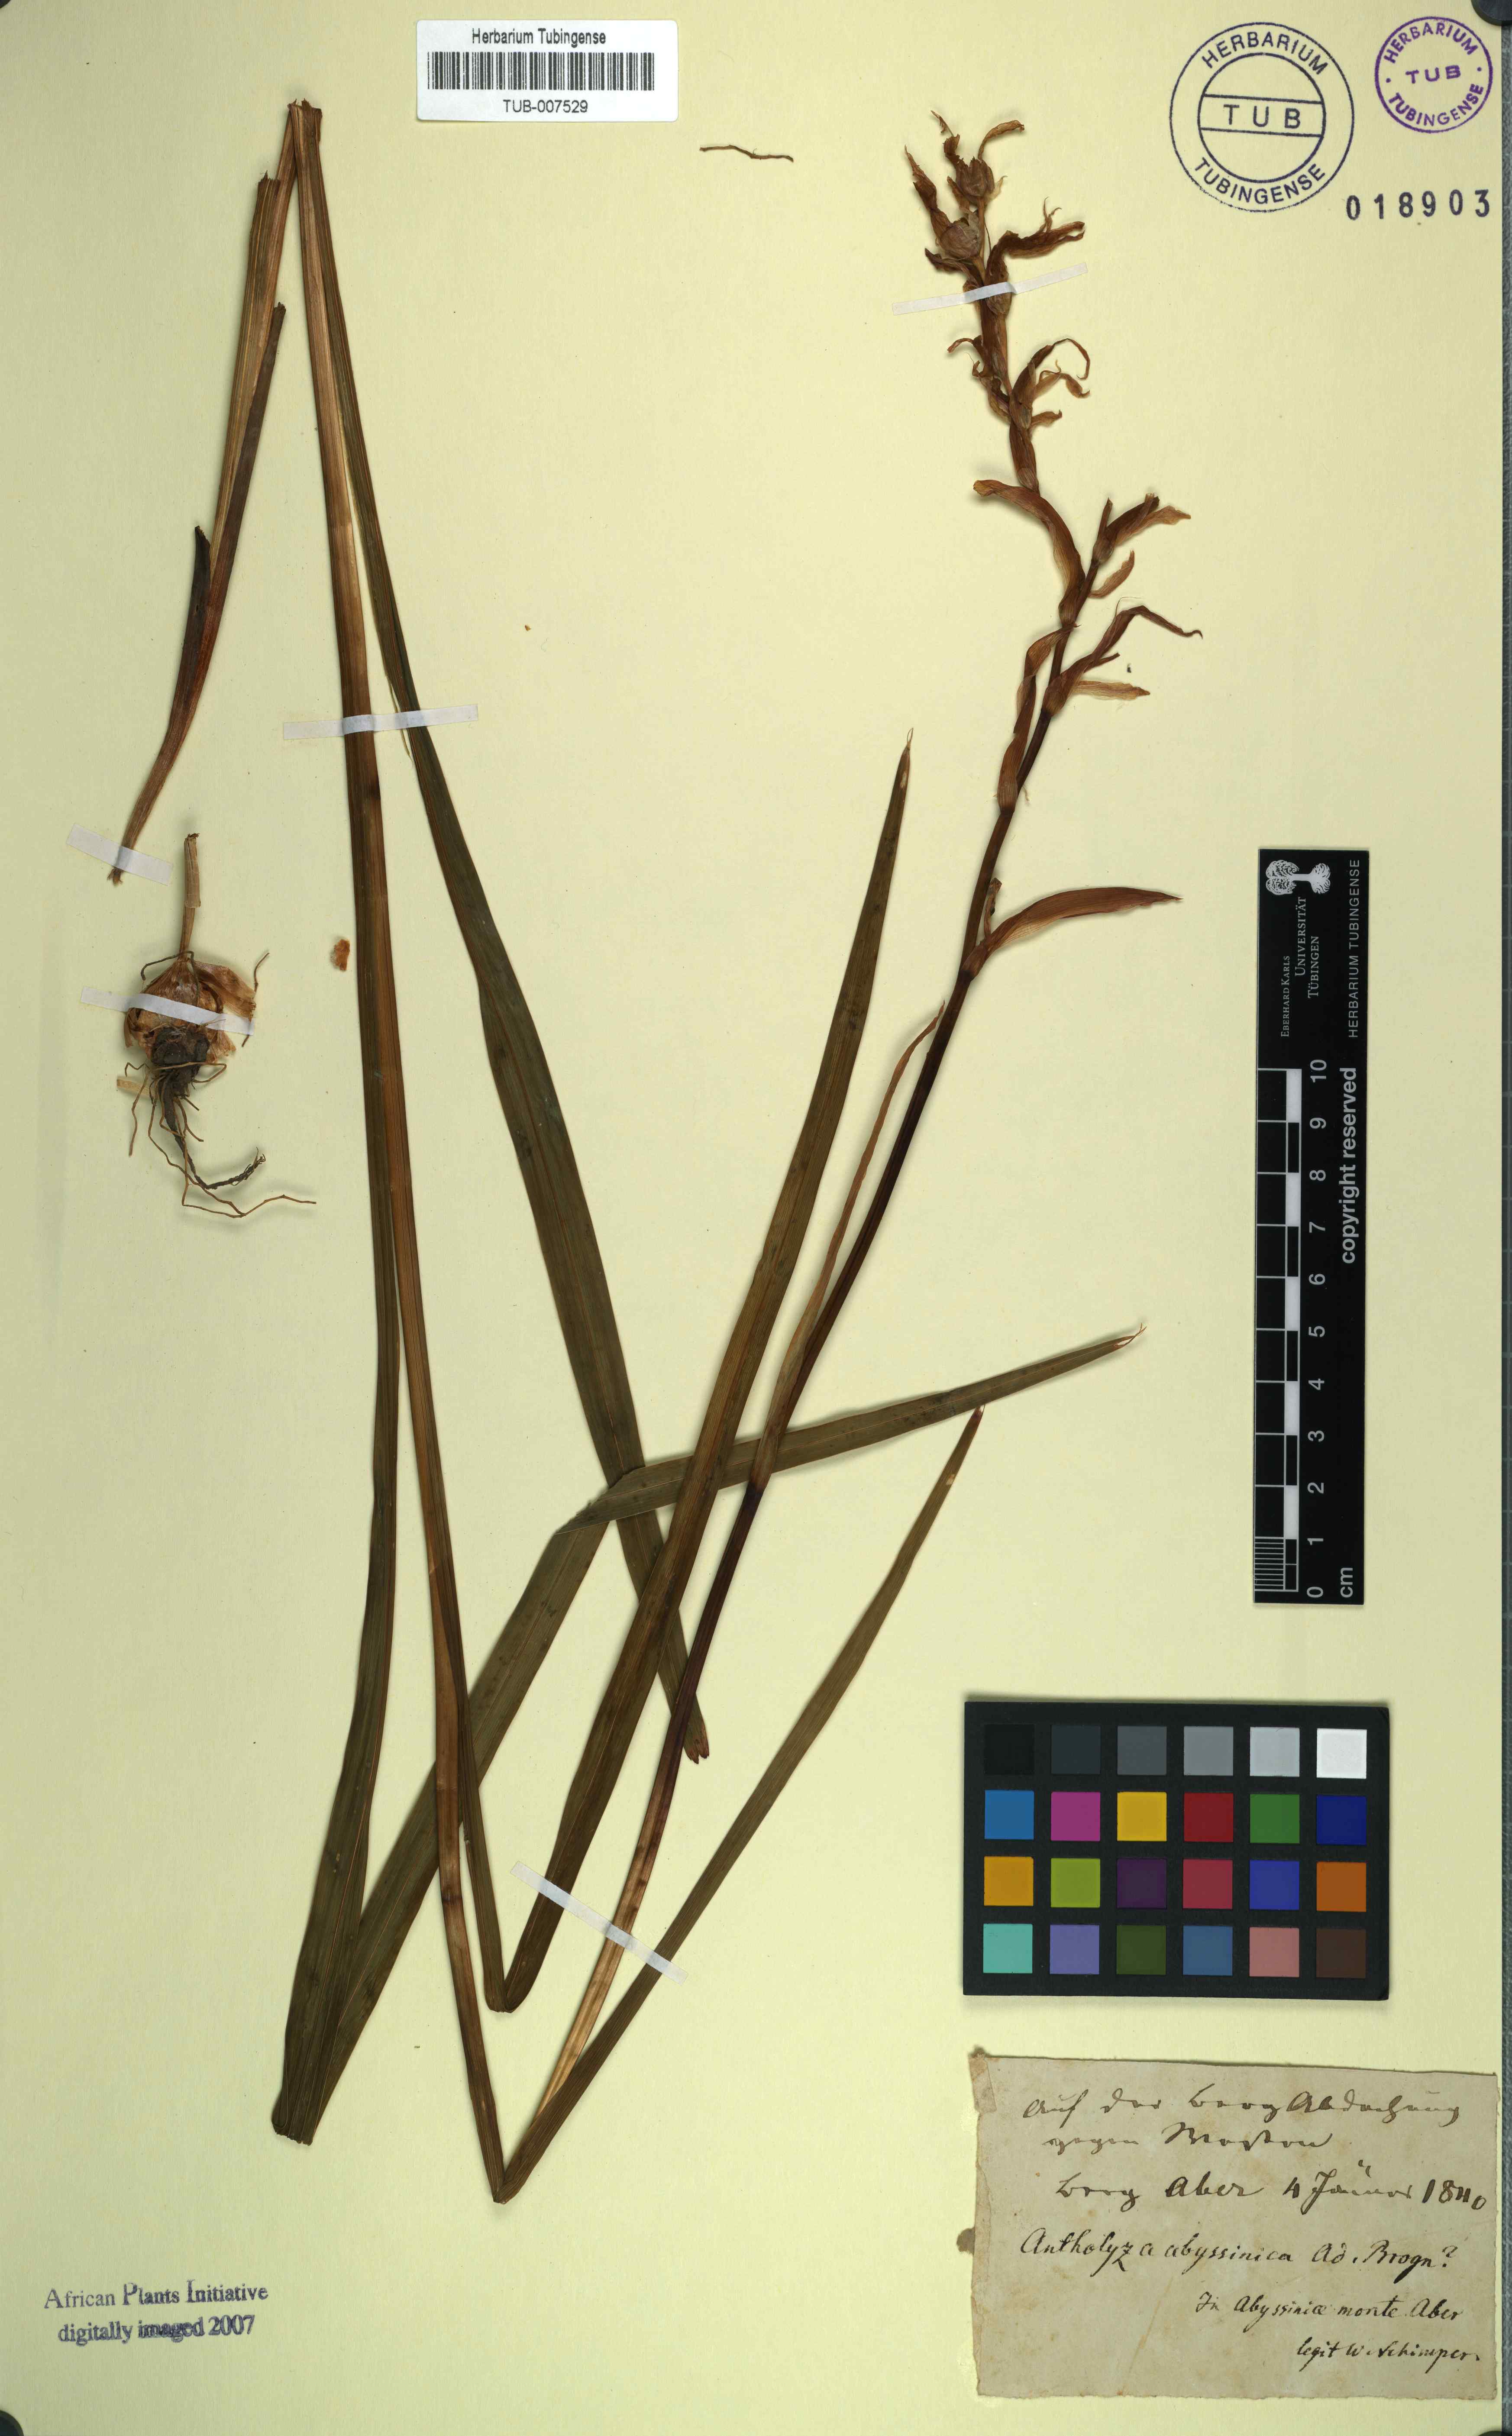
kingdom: Plantae
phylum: Tracheophyta
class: Liliopsida
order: Asparagales
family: Iridaceae
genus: Gladiolus
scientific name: Gladiolus abyssinicus
